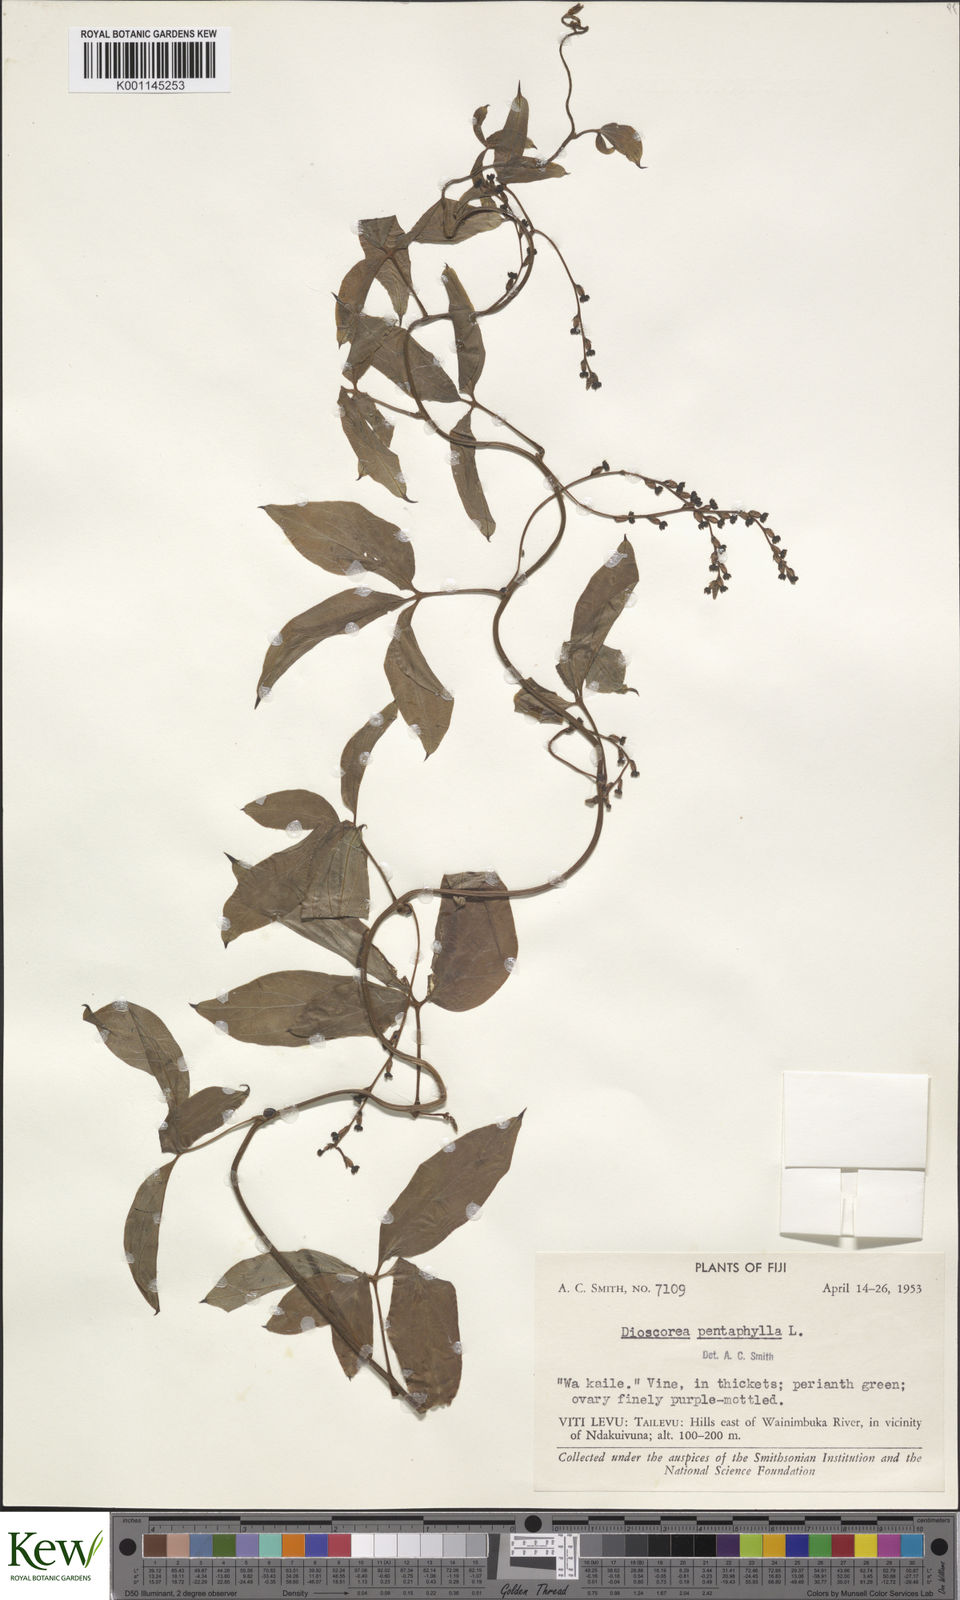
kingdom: Plantae
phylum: Tracheophyta
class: Liliopsida
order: Dioscoreales
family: Dioscoreaceae
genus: Dioscorea
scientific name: Dioscorea pentaphylla
